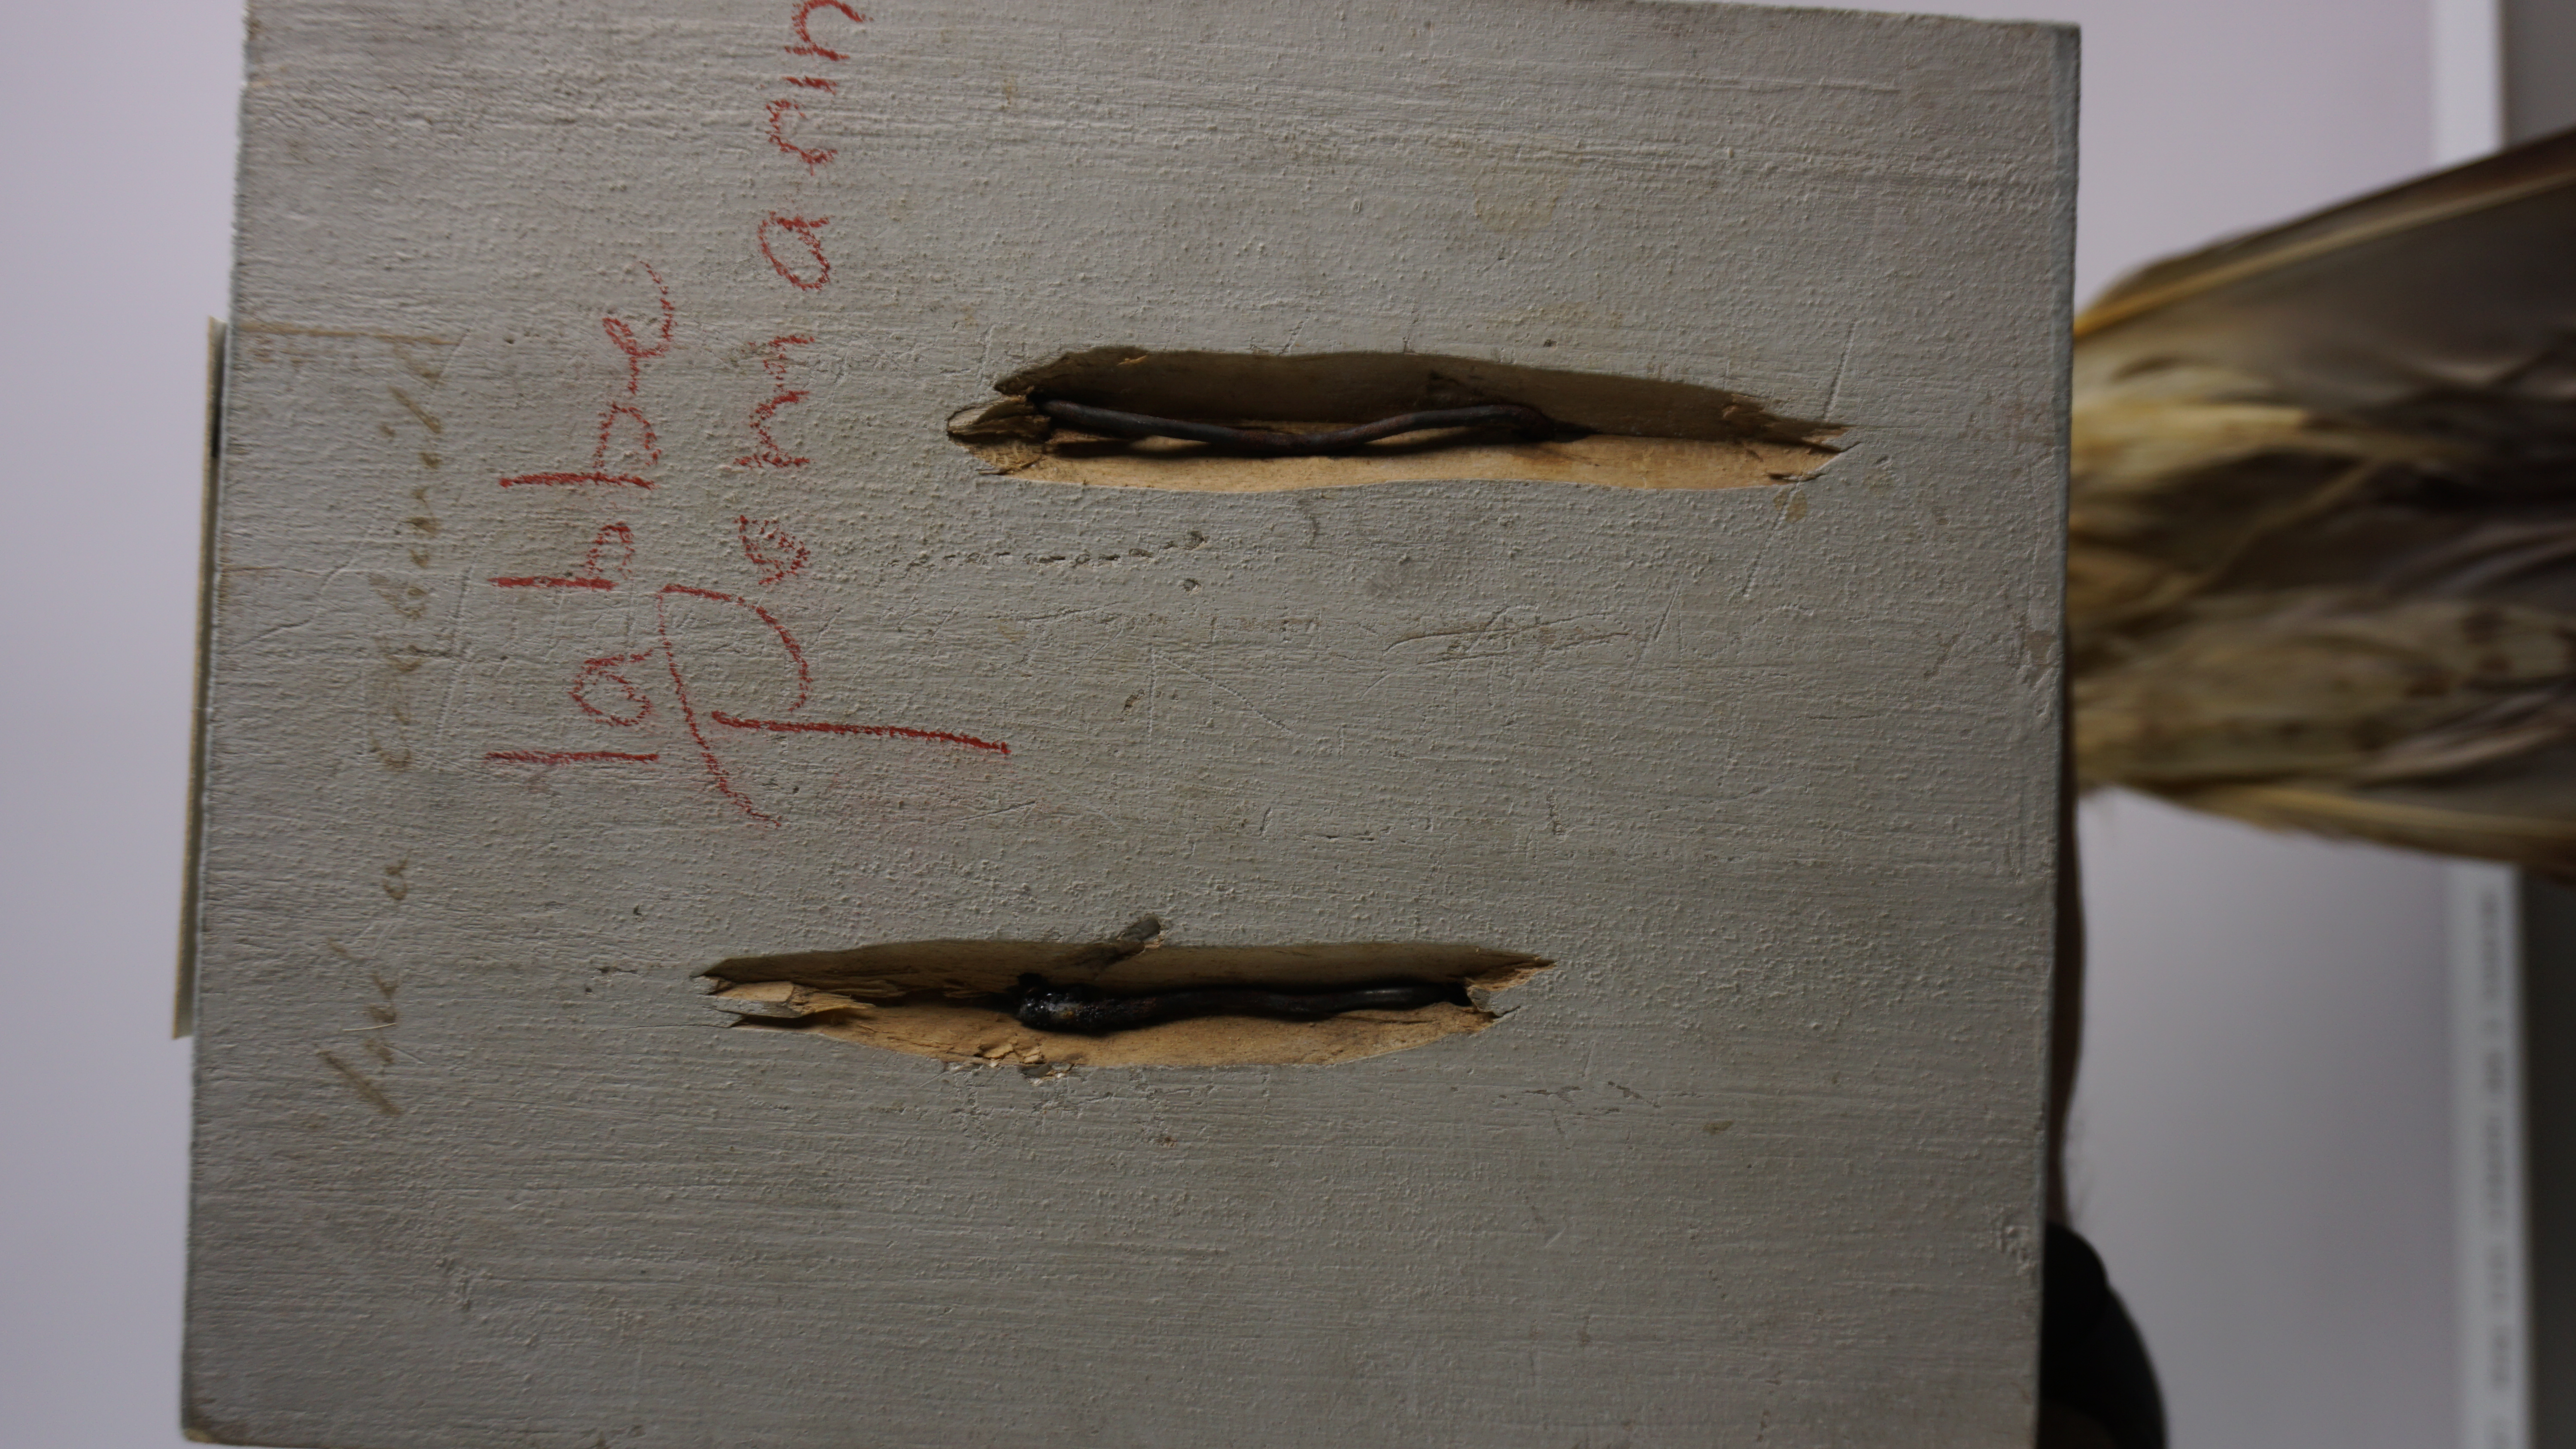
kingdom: Animalia
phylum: Chordata
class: Aves
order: Charadriiformes
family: Stercorariidae
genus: Stercorarius
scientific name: Stercorarius pomarinus
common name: Pomarine jaeger
